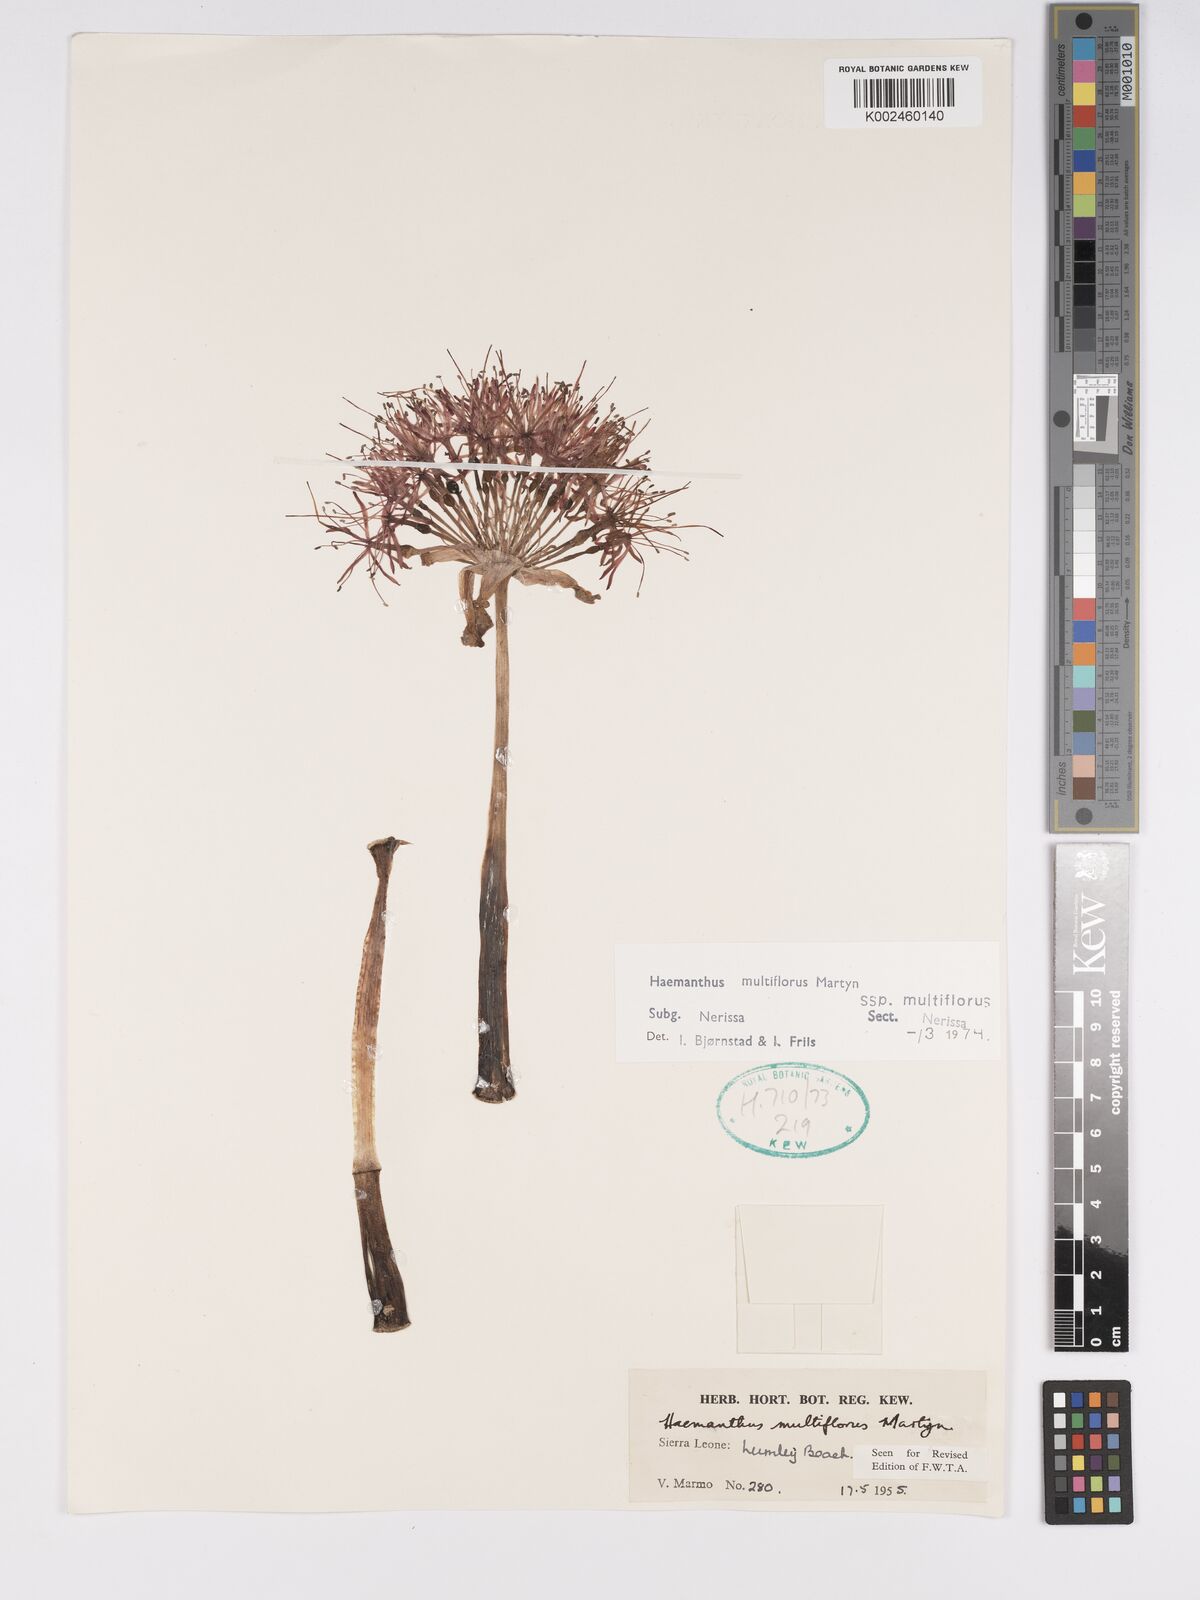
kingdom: Plantae
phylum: Tracheophyta
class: Liliopsida
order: Asparagales
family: Amaryllidaceae
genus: Scadoxus
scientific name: Scadoxus multiflorus
